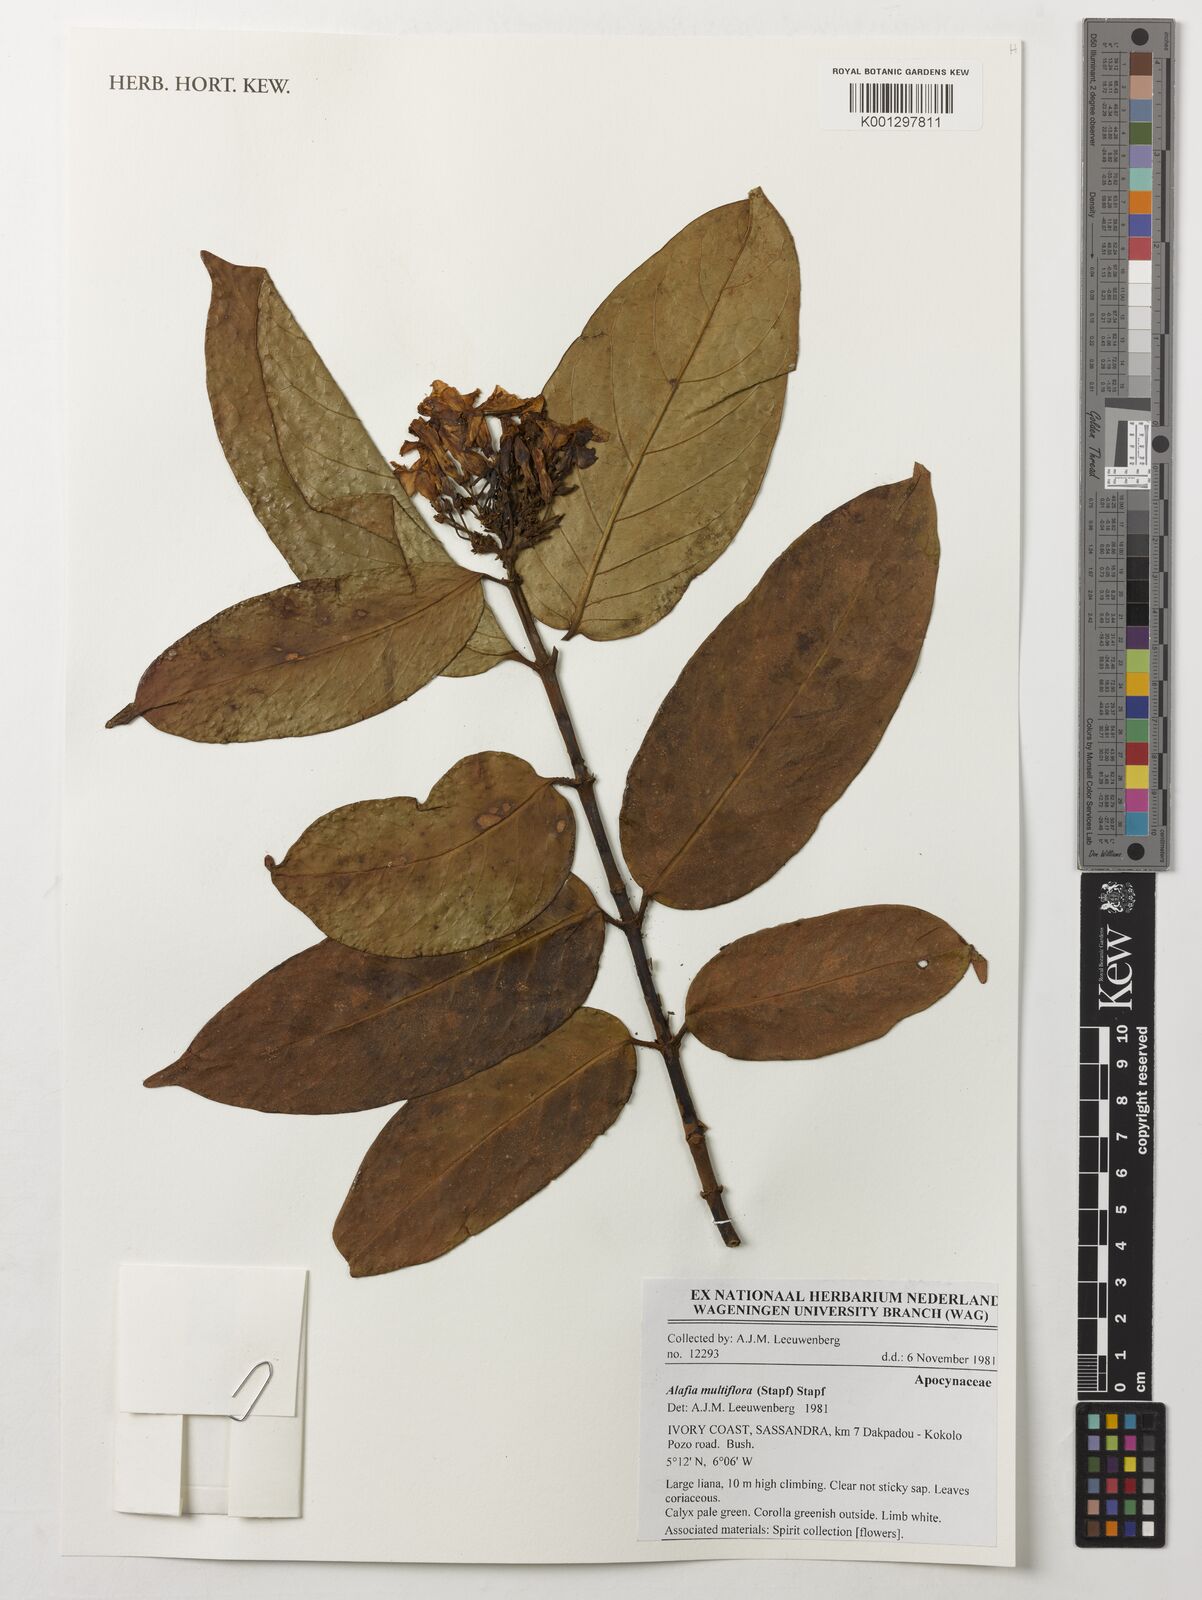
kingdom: Plantae
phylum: Tracheophyta
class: Magnoliopsida
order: Gentianales
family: Apocynaceae
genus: Alafia
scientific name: Alafia multiflora
